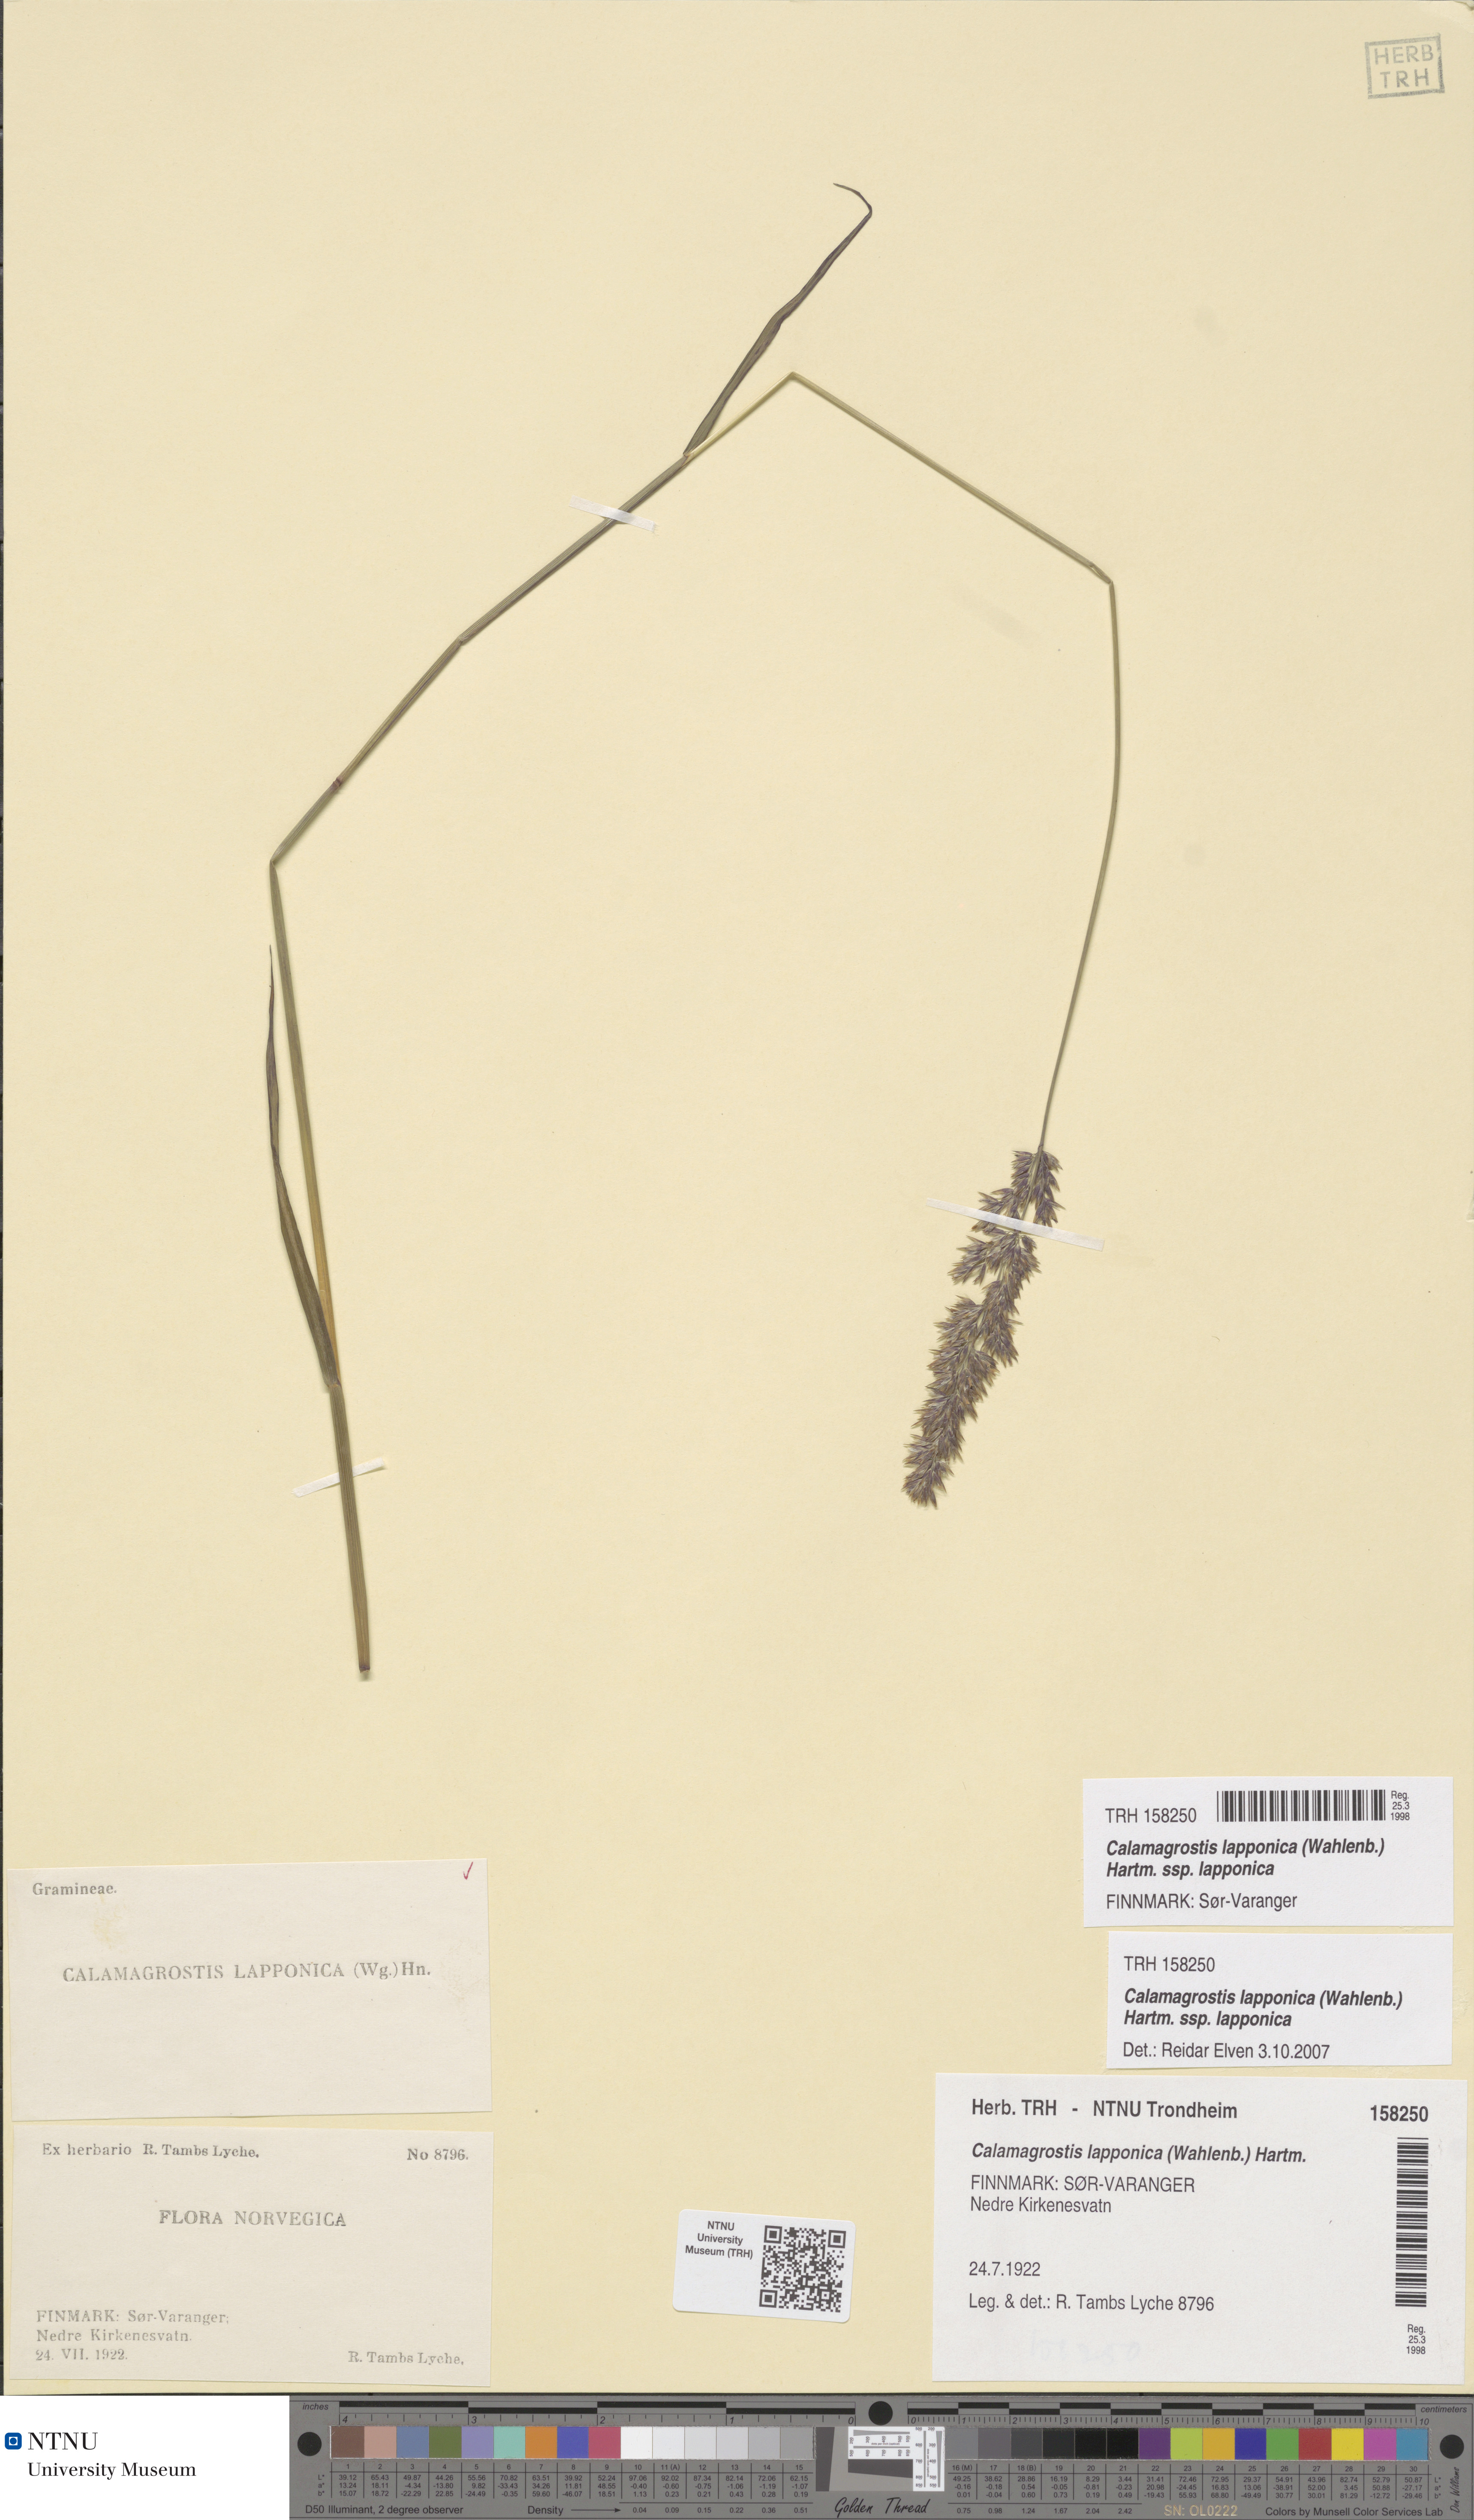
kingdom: Plantae
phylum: Tracheophyta
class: Liliopsida
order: Poales
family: Poaceae
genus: Calamagrostis
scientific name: Calamagrostis lapponica
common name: Lapland reedgrass
